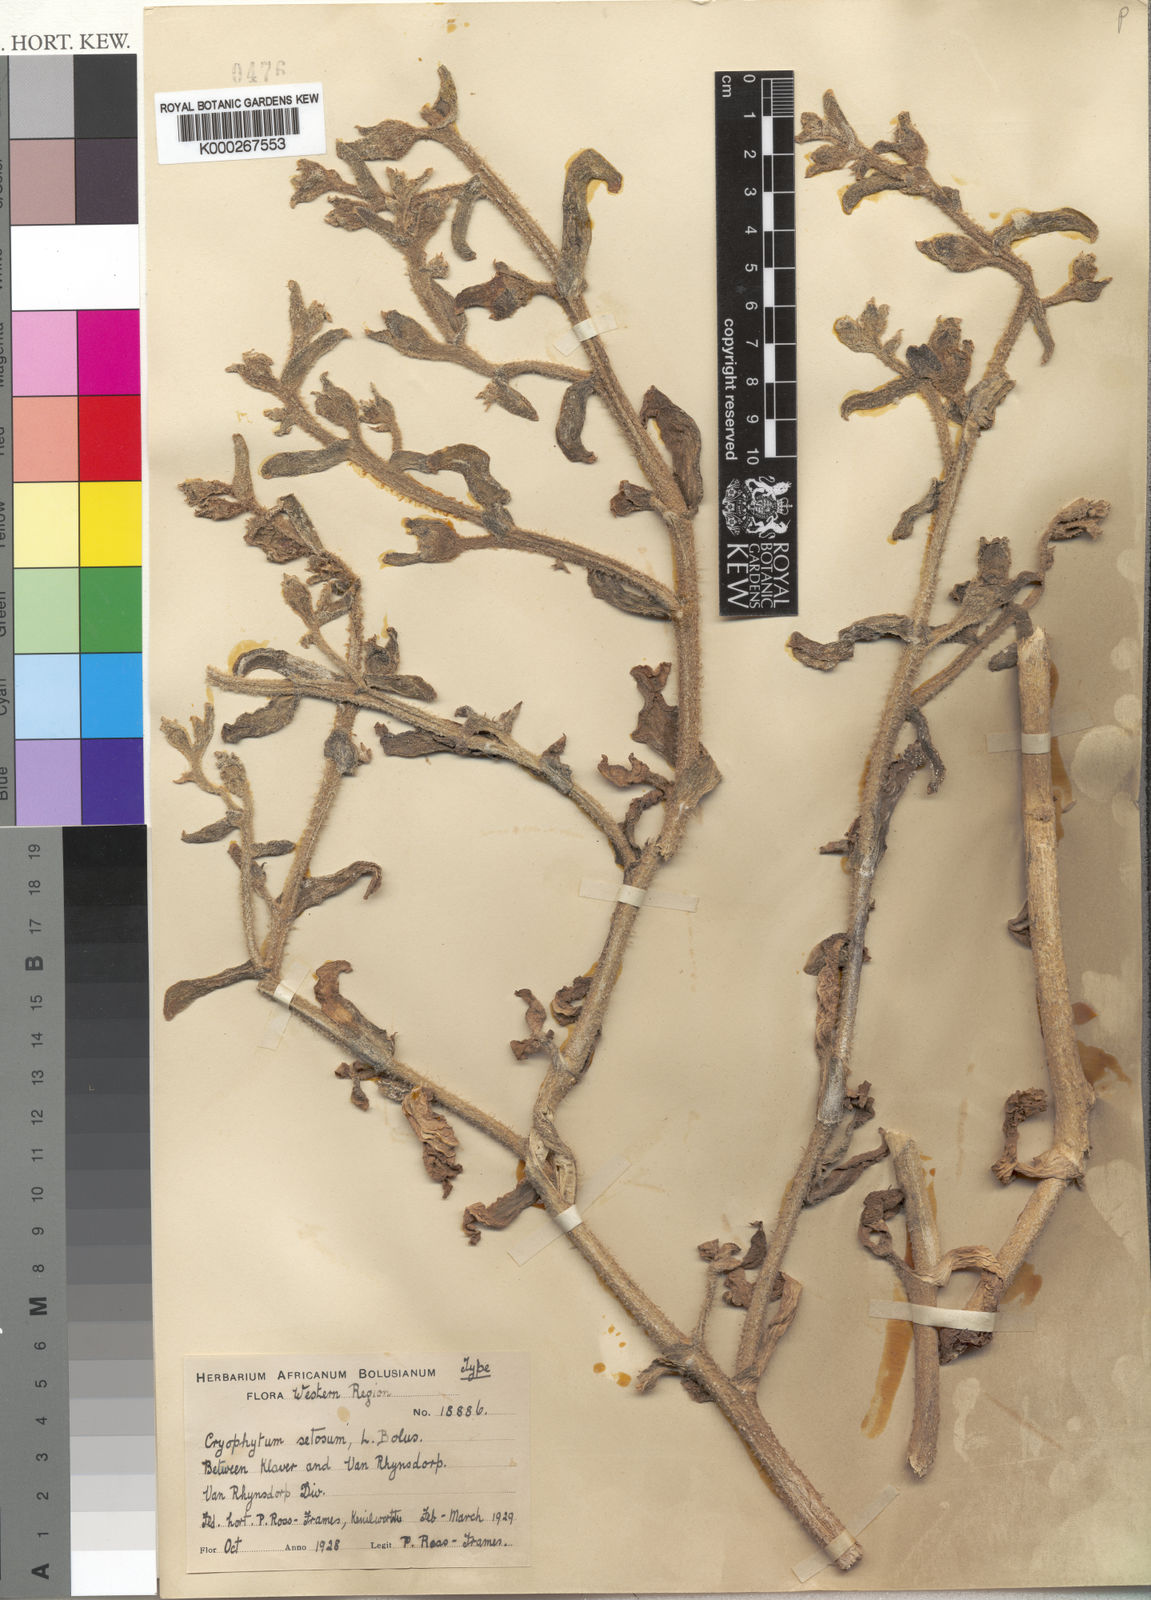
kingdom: Plantae
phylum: Tracheophyta
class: Magnoliopsida
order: Caryophyllales
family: Aizoaceae
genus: Mesembryanthemum
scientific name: Mesembryanthemum guerichianum
